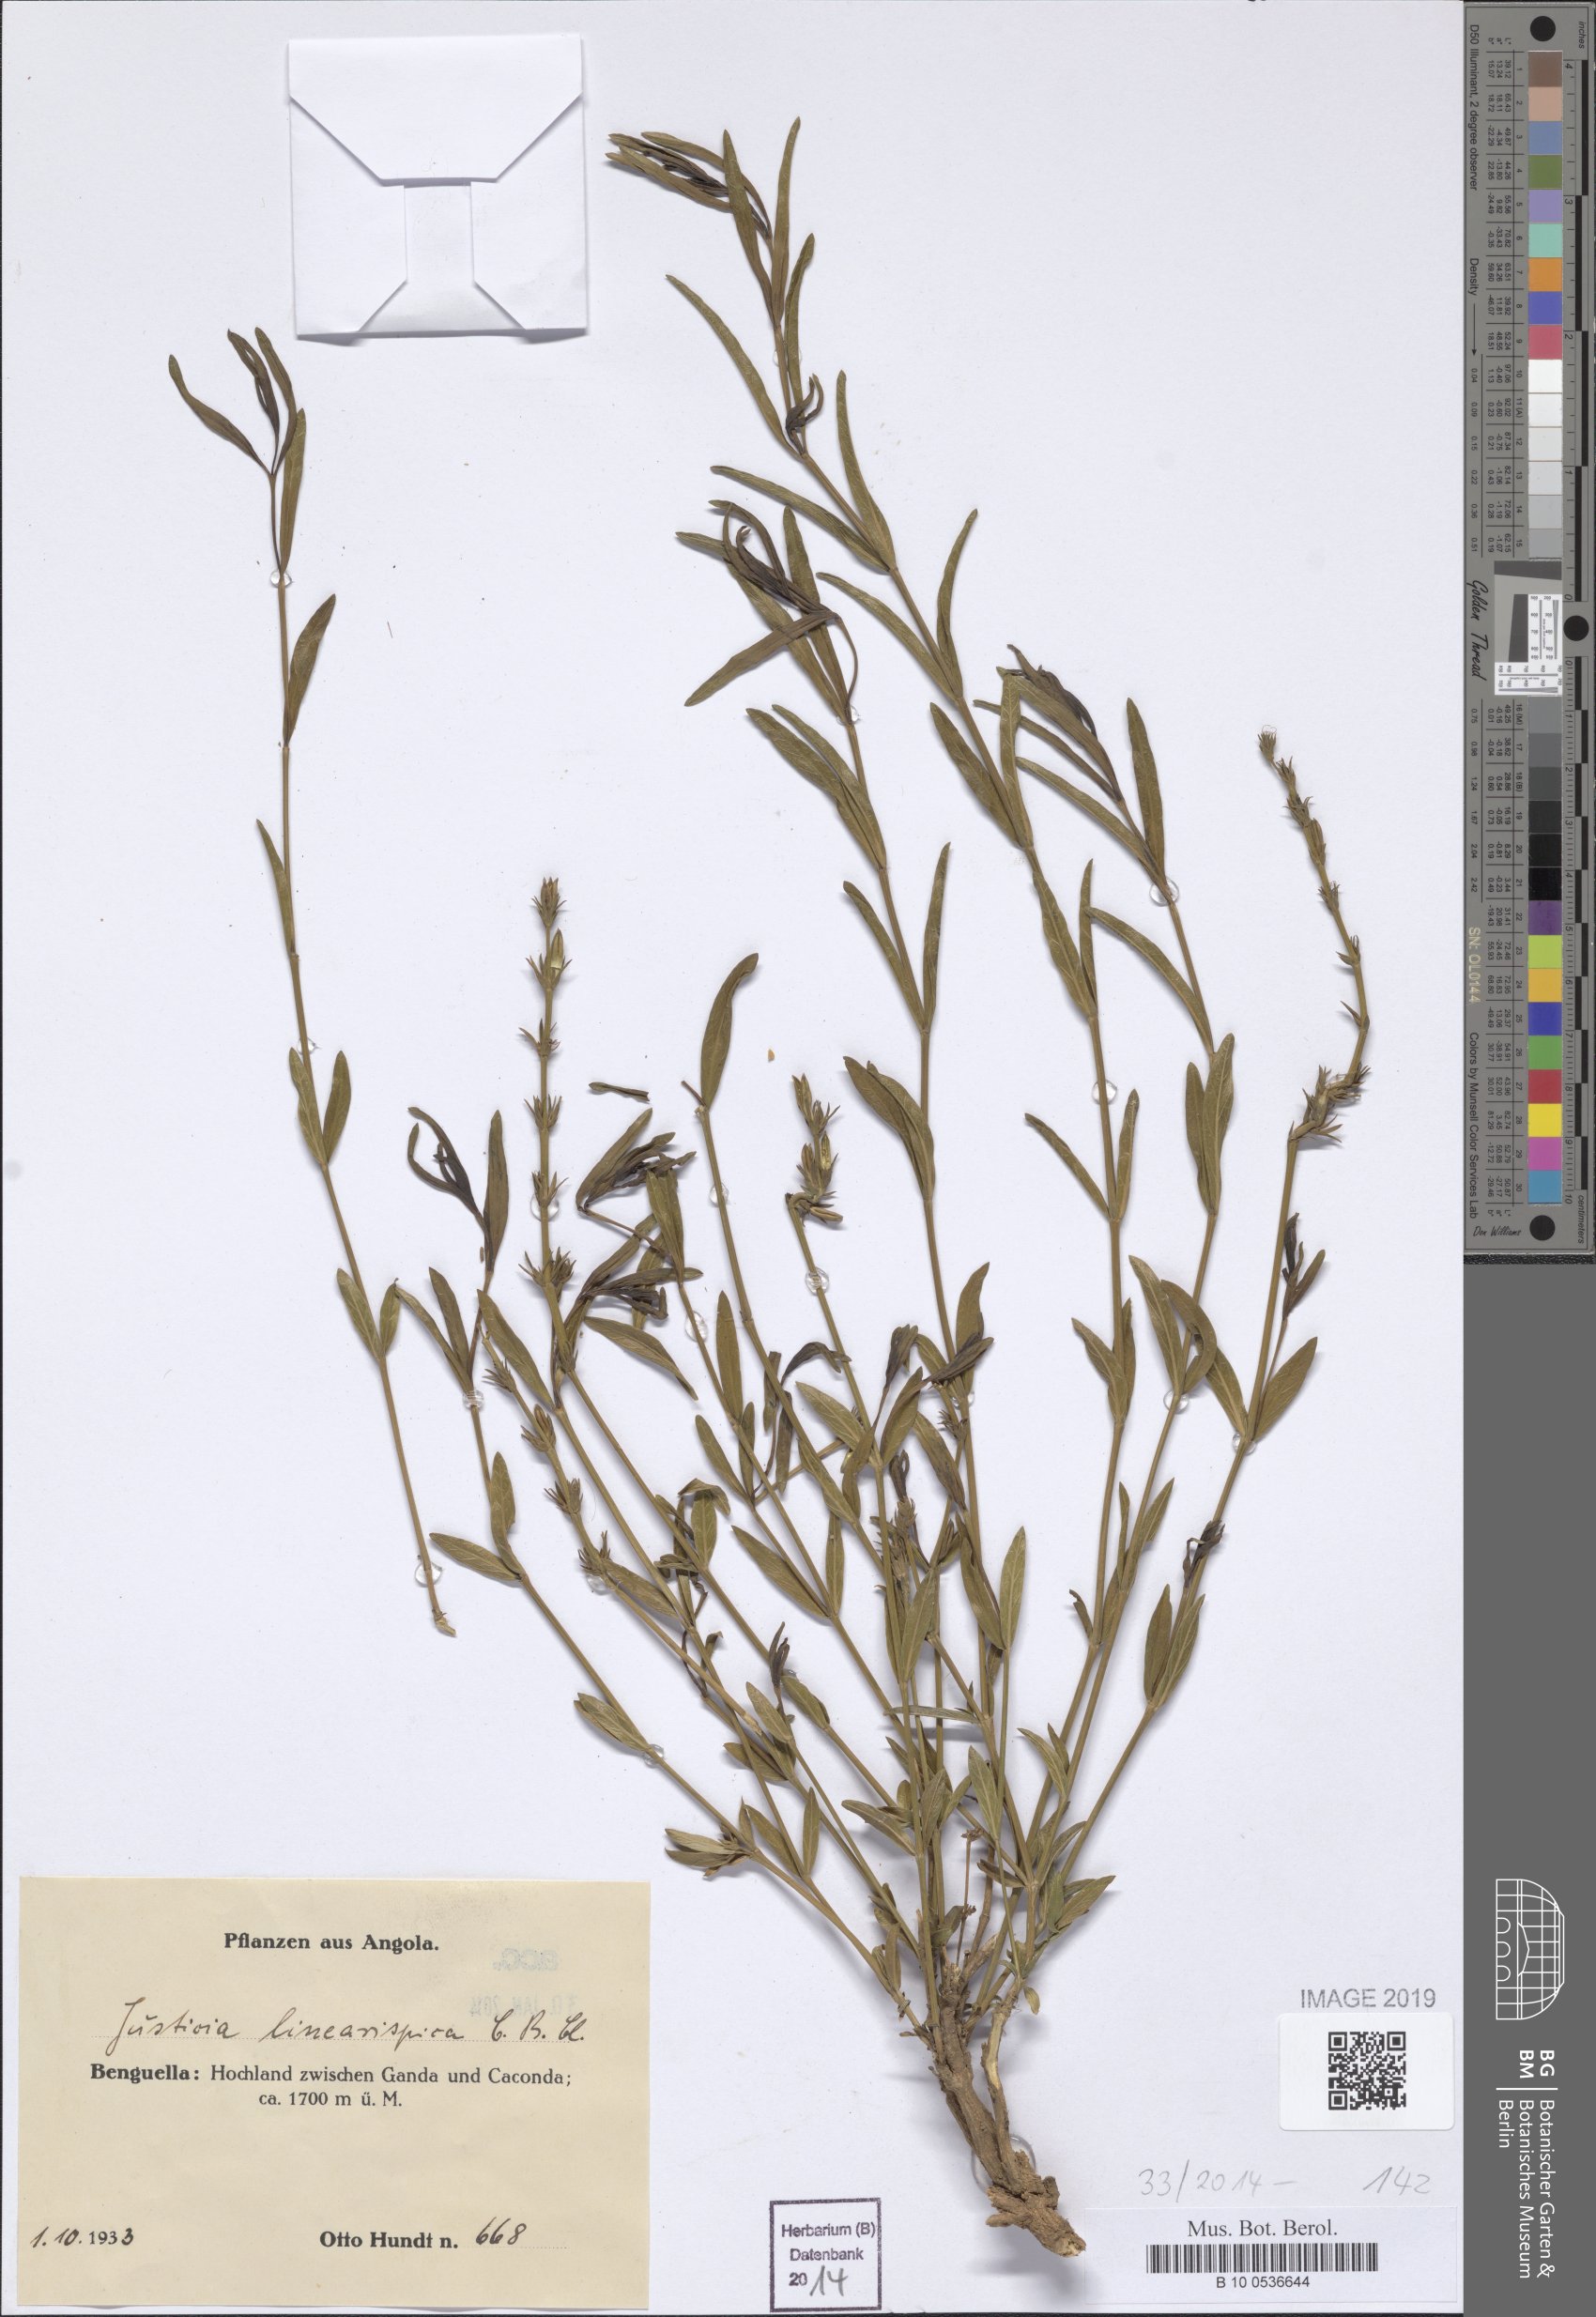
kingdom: Plantae
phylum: Tracheophyta
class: Magnoliopsida
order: Lamiales
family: Acanthaceae
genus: Justicia
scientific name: Justicia linearispica
